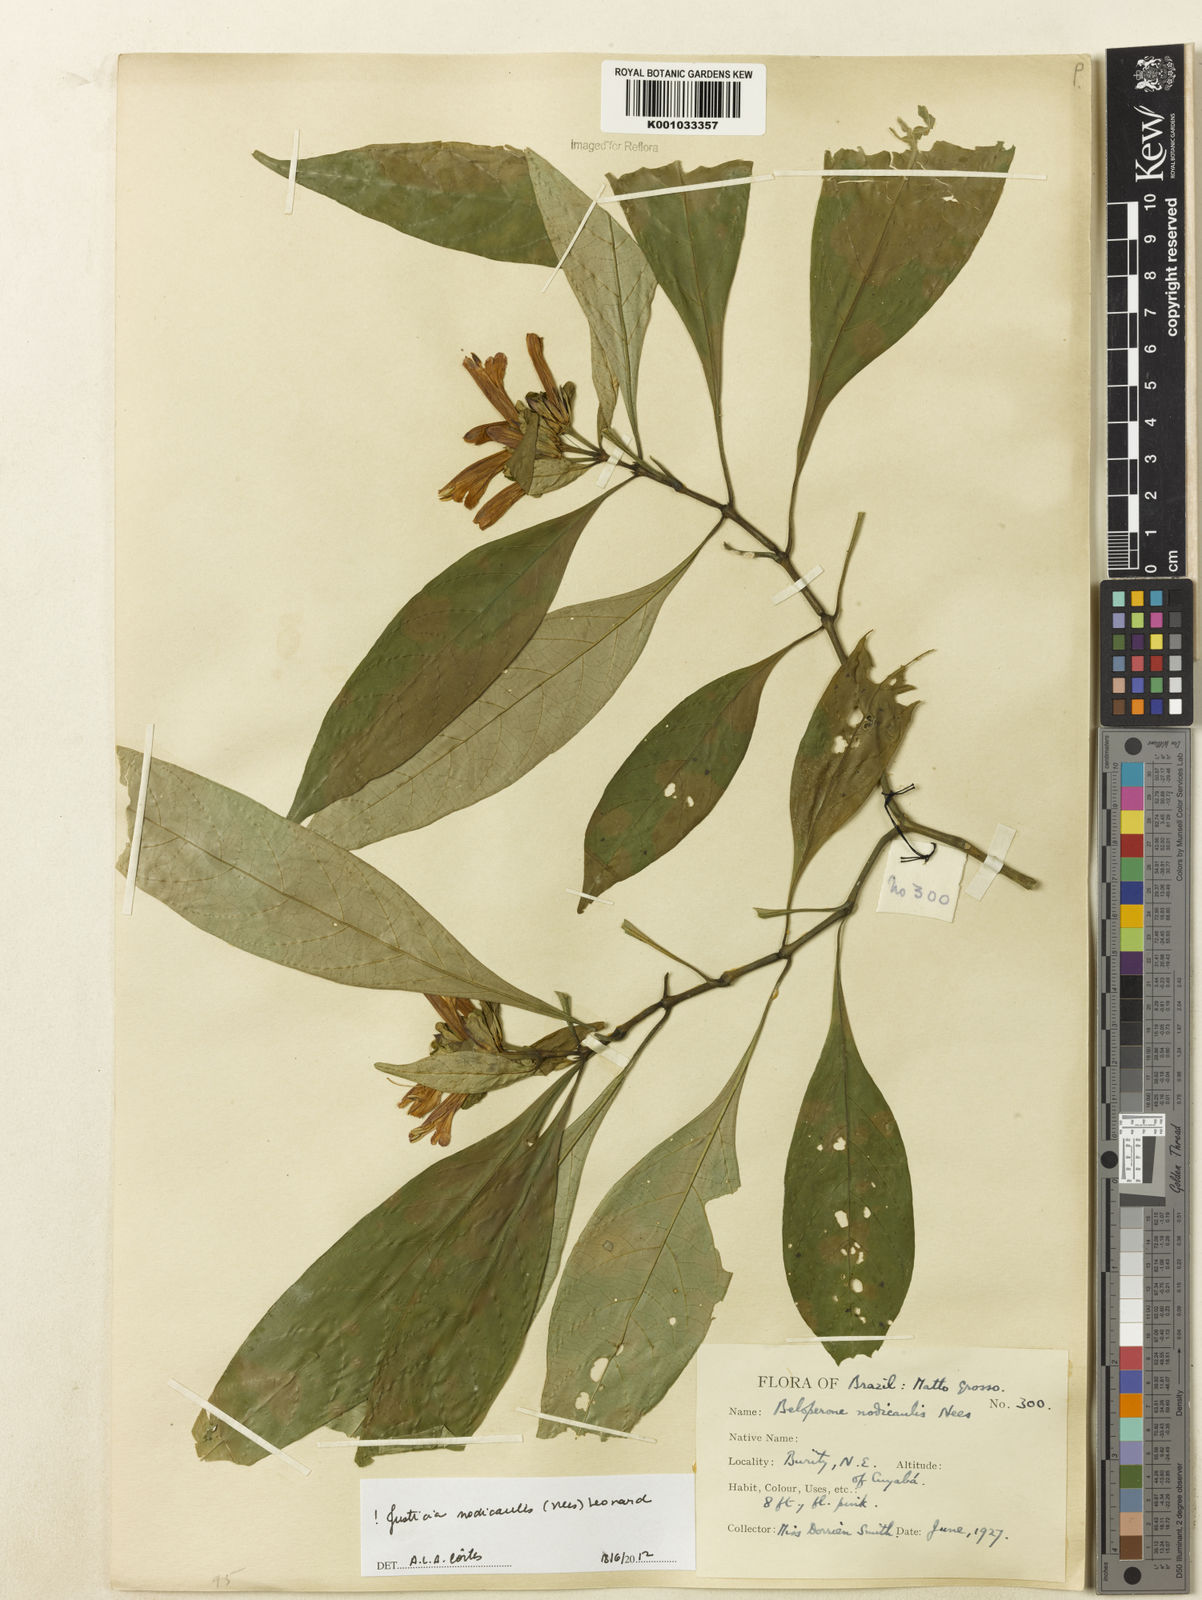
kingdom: Plantae
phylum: Tracheophyta
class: Magnoliopsida
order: Lamiales
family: Acanthaceae
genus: Justicia
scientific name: Justicia nodicaulis
